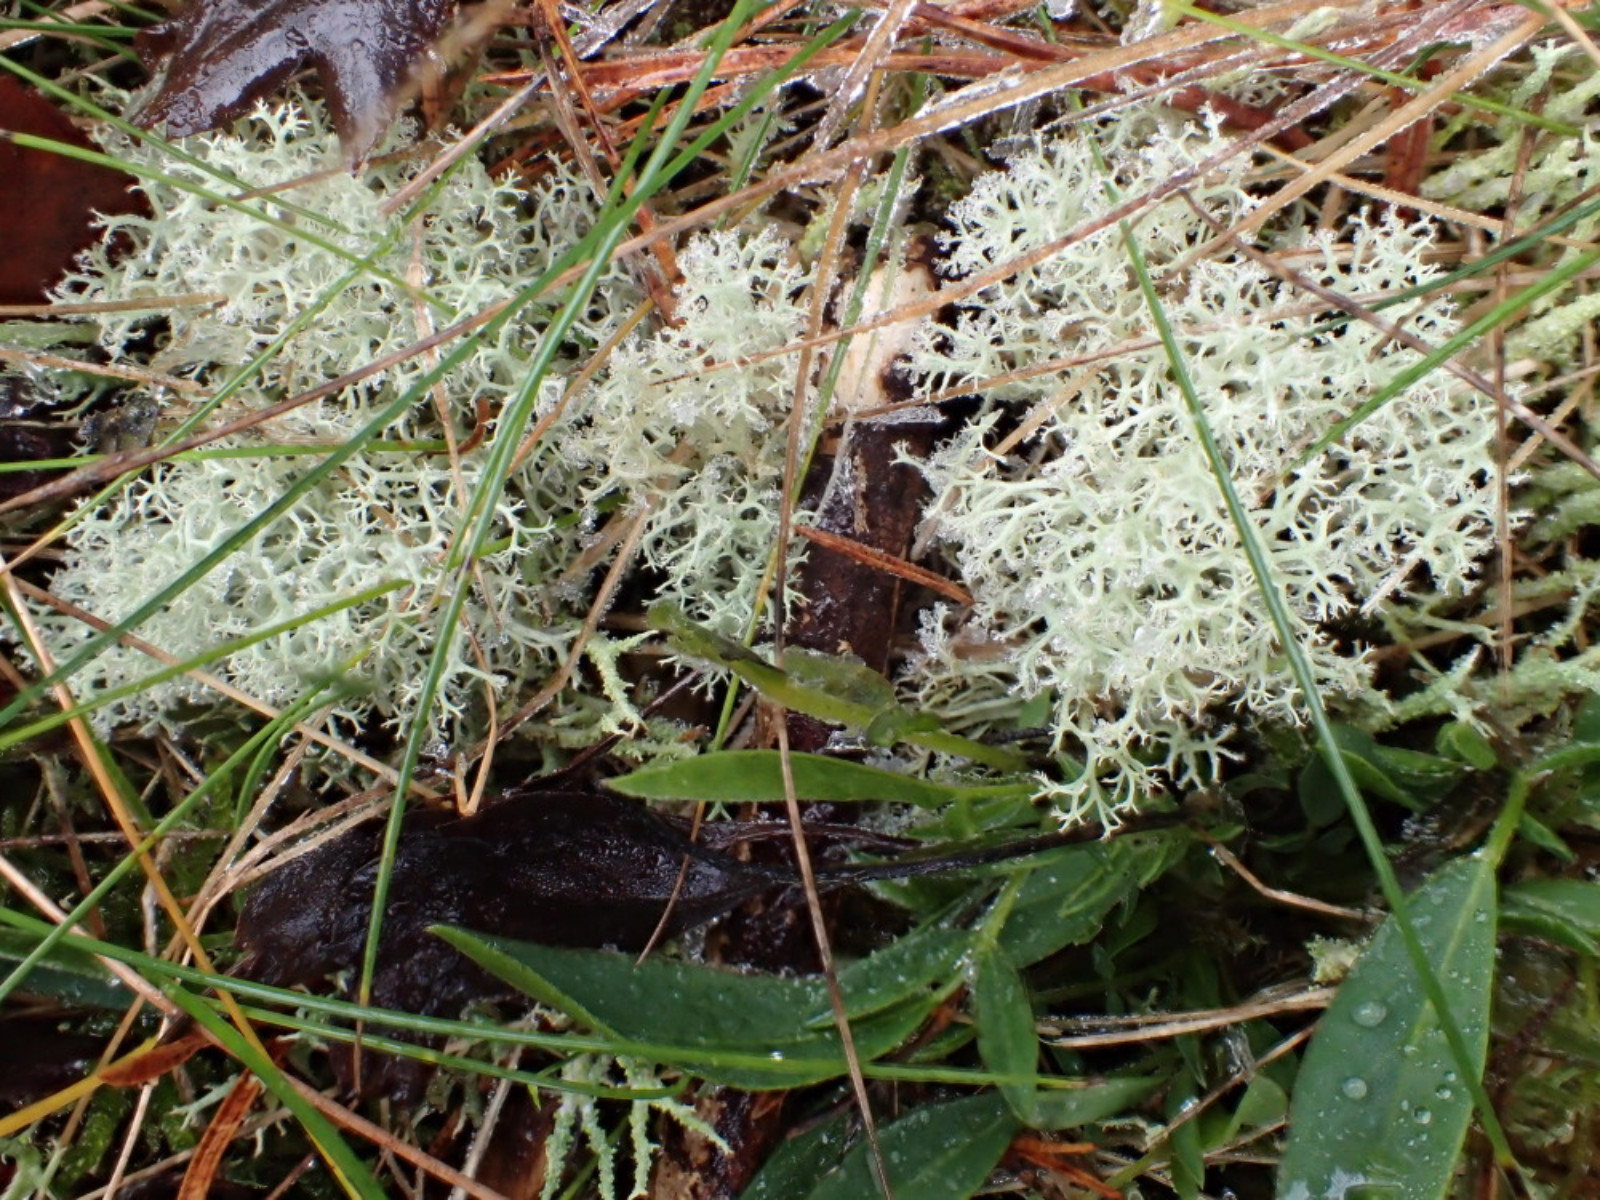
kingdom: Fungi
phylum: Ascomycota
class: Lecanoromycetes
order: Lecanorales
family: Cladoniaceae
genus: Cladonia
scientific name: Cladonia portentosa
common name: hede-rensdyrlav
